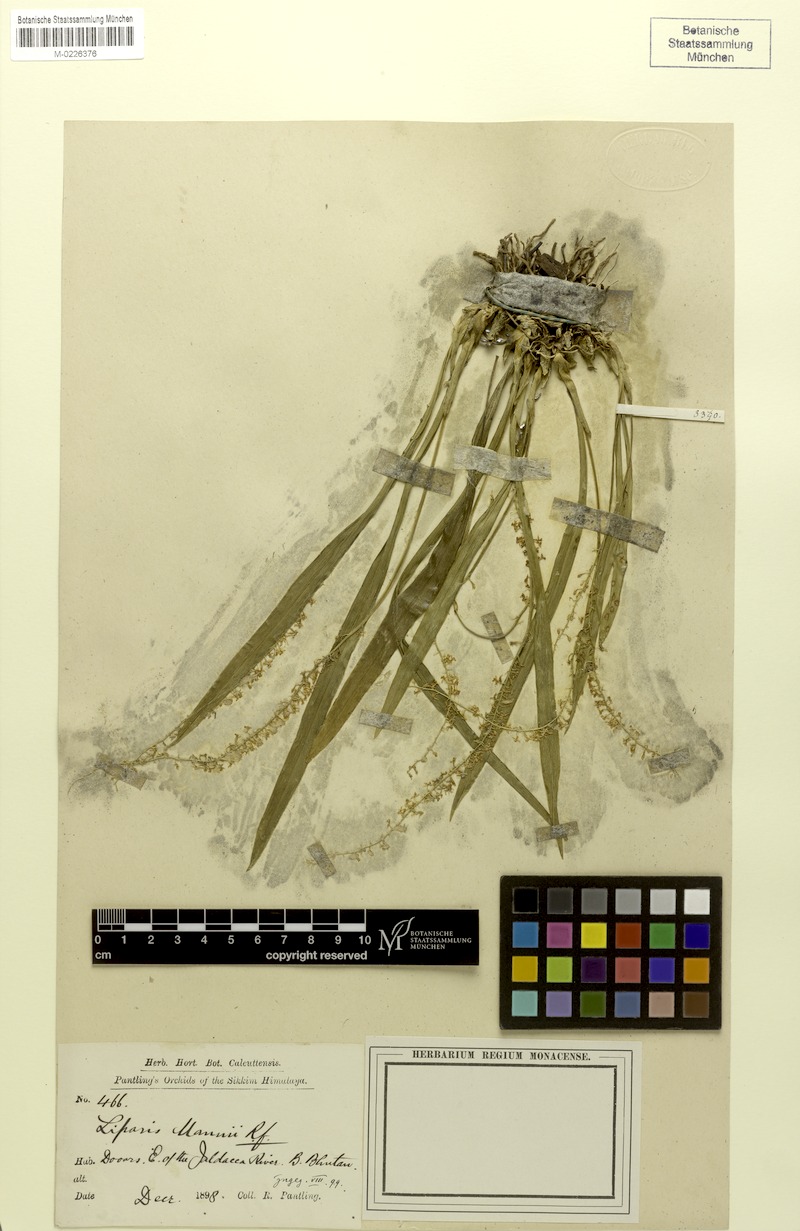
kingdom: Plantae
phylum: Tracheophyta
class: Liliopsida
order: Asparagales
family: Orchidaceae
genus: Liparis
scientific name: Liparis mannii
